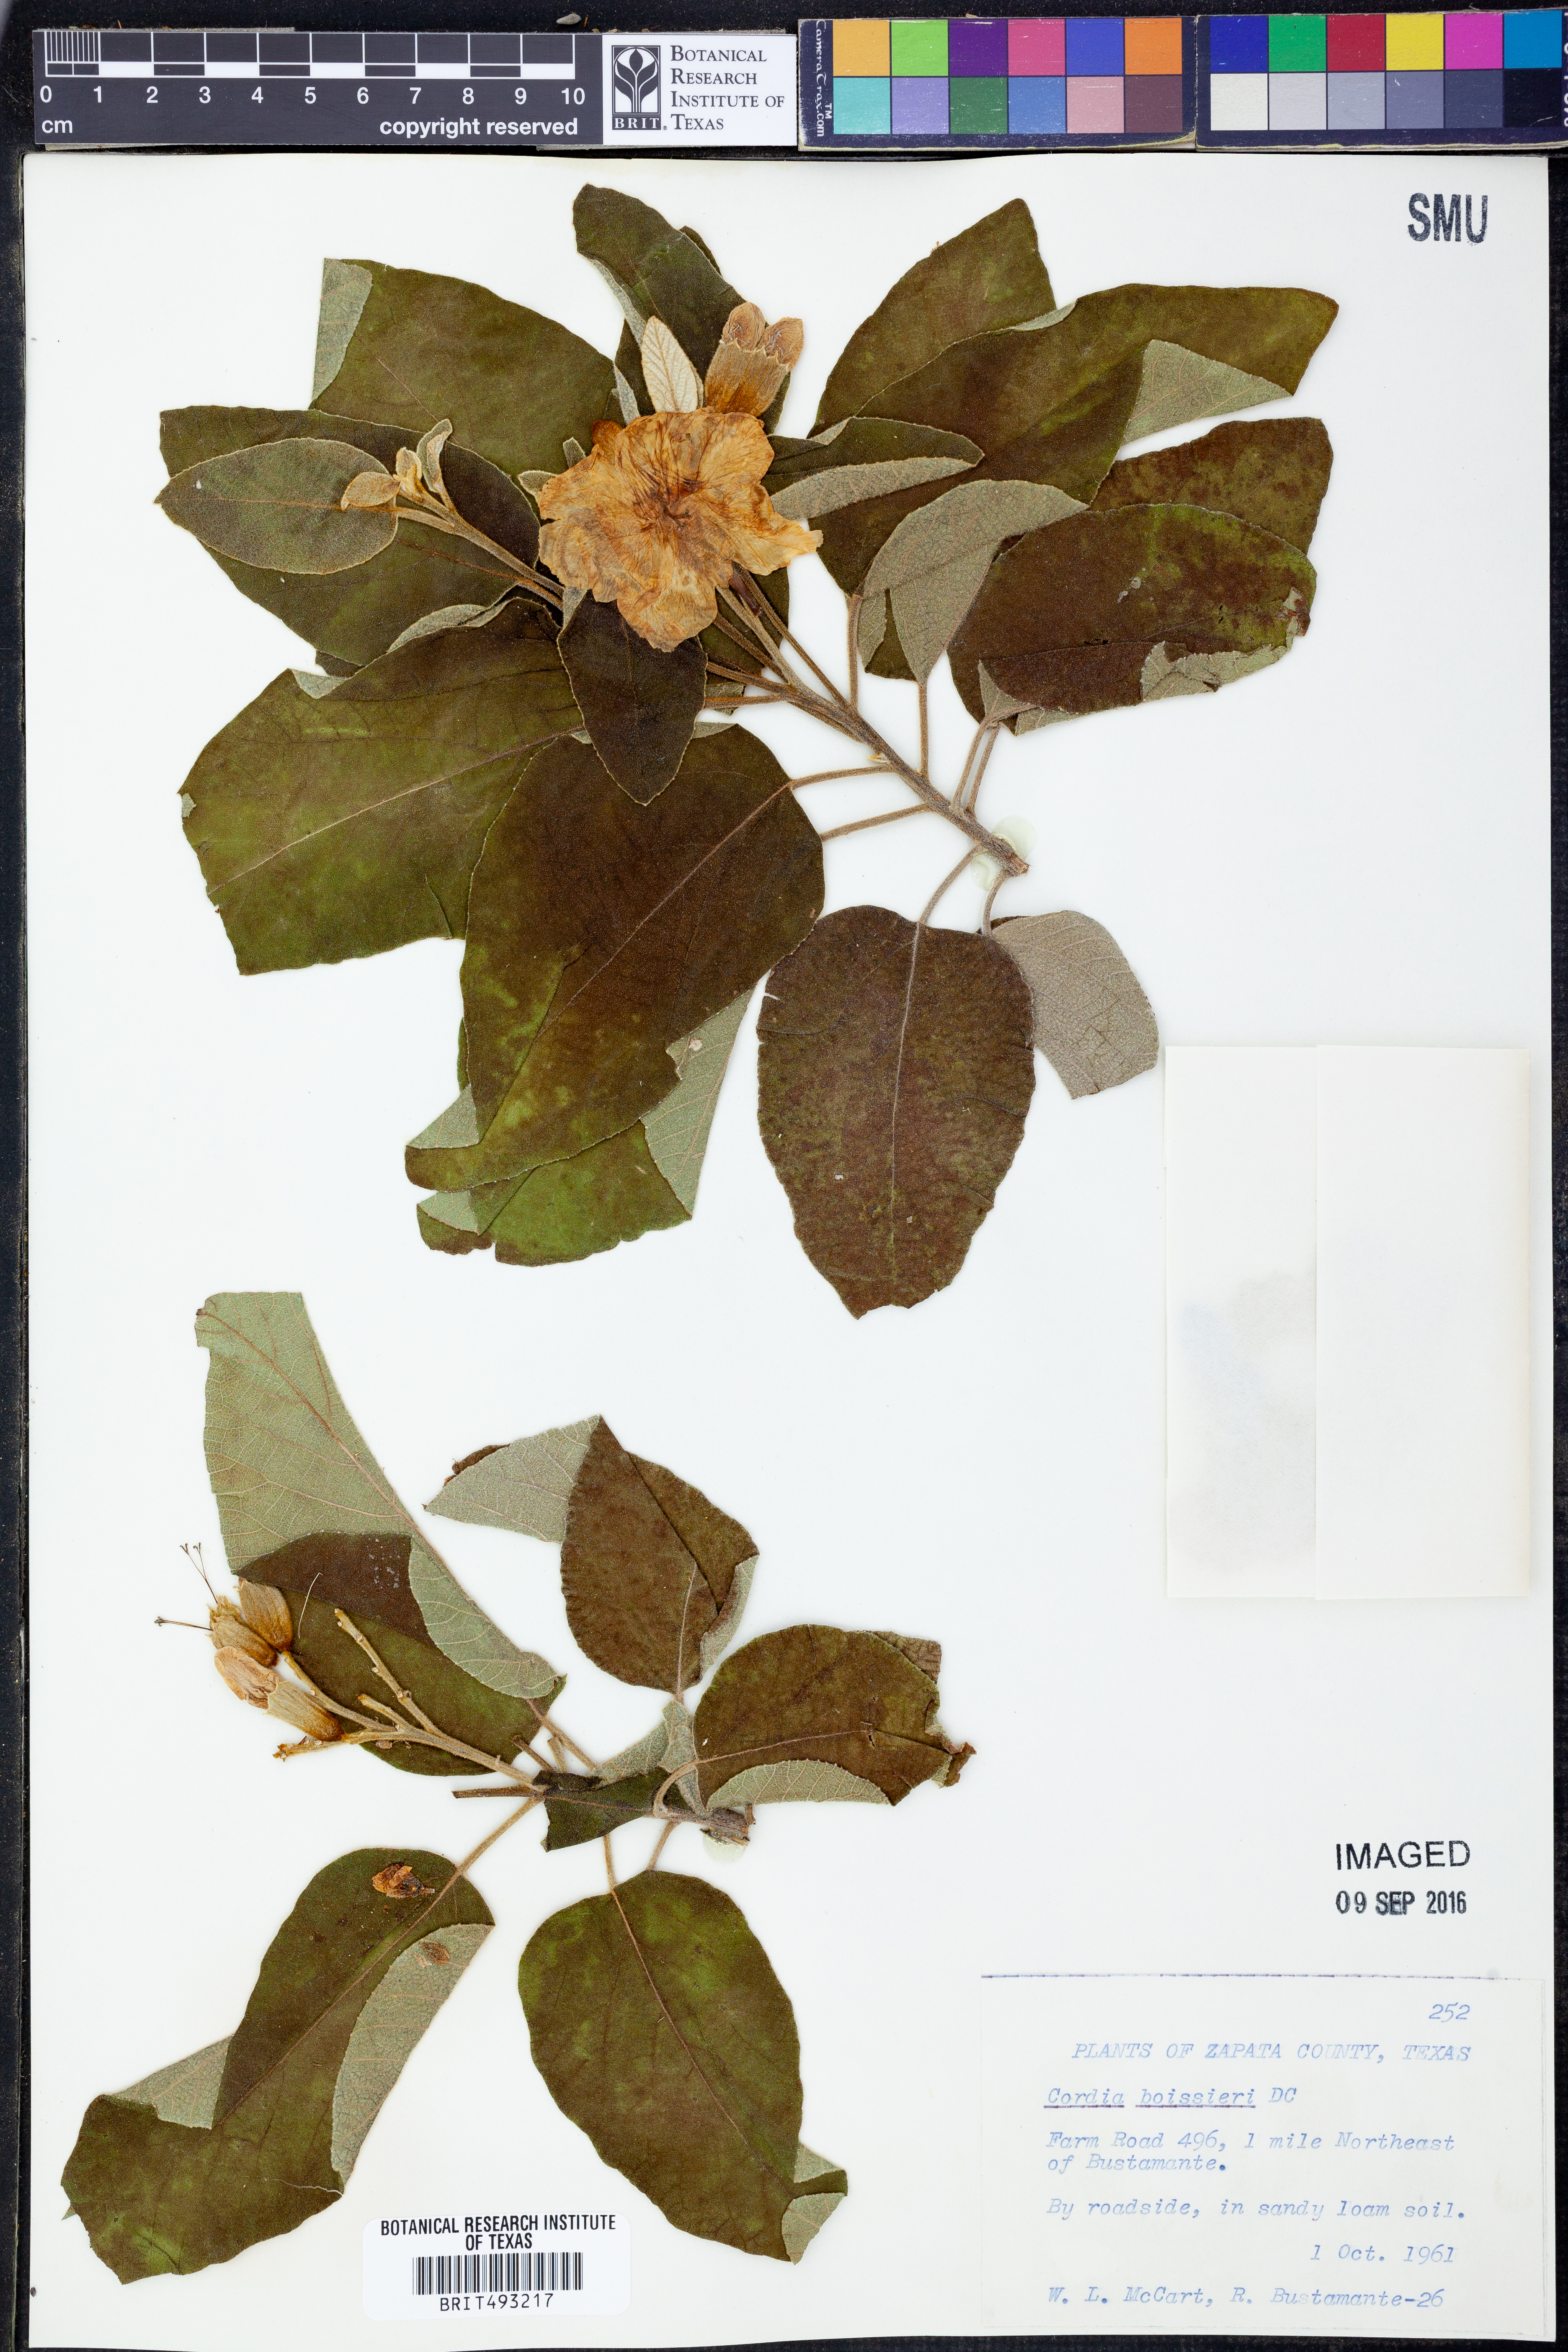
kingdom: Plantae
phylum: Tracheophyta
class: Magnoliopsida
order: Boraginales
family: Cordiaceae
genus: Cordia
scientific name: Cordia boissieri
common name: Mexican-olive
